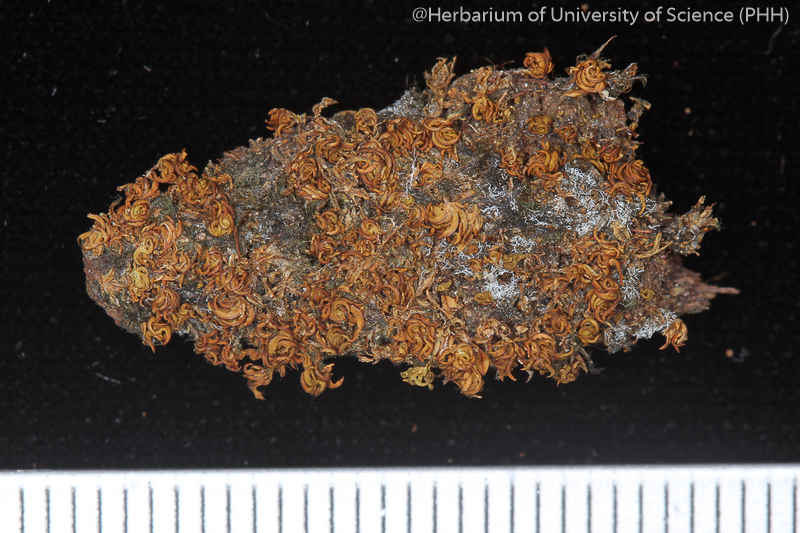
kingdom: Plantae
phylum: Bryophyta
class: Bryopsida
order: Pottiales
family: Pottiaceae
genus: Hyophila
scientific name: Hyophila nymaniana
